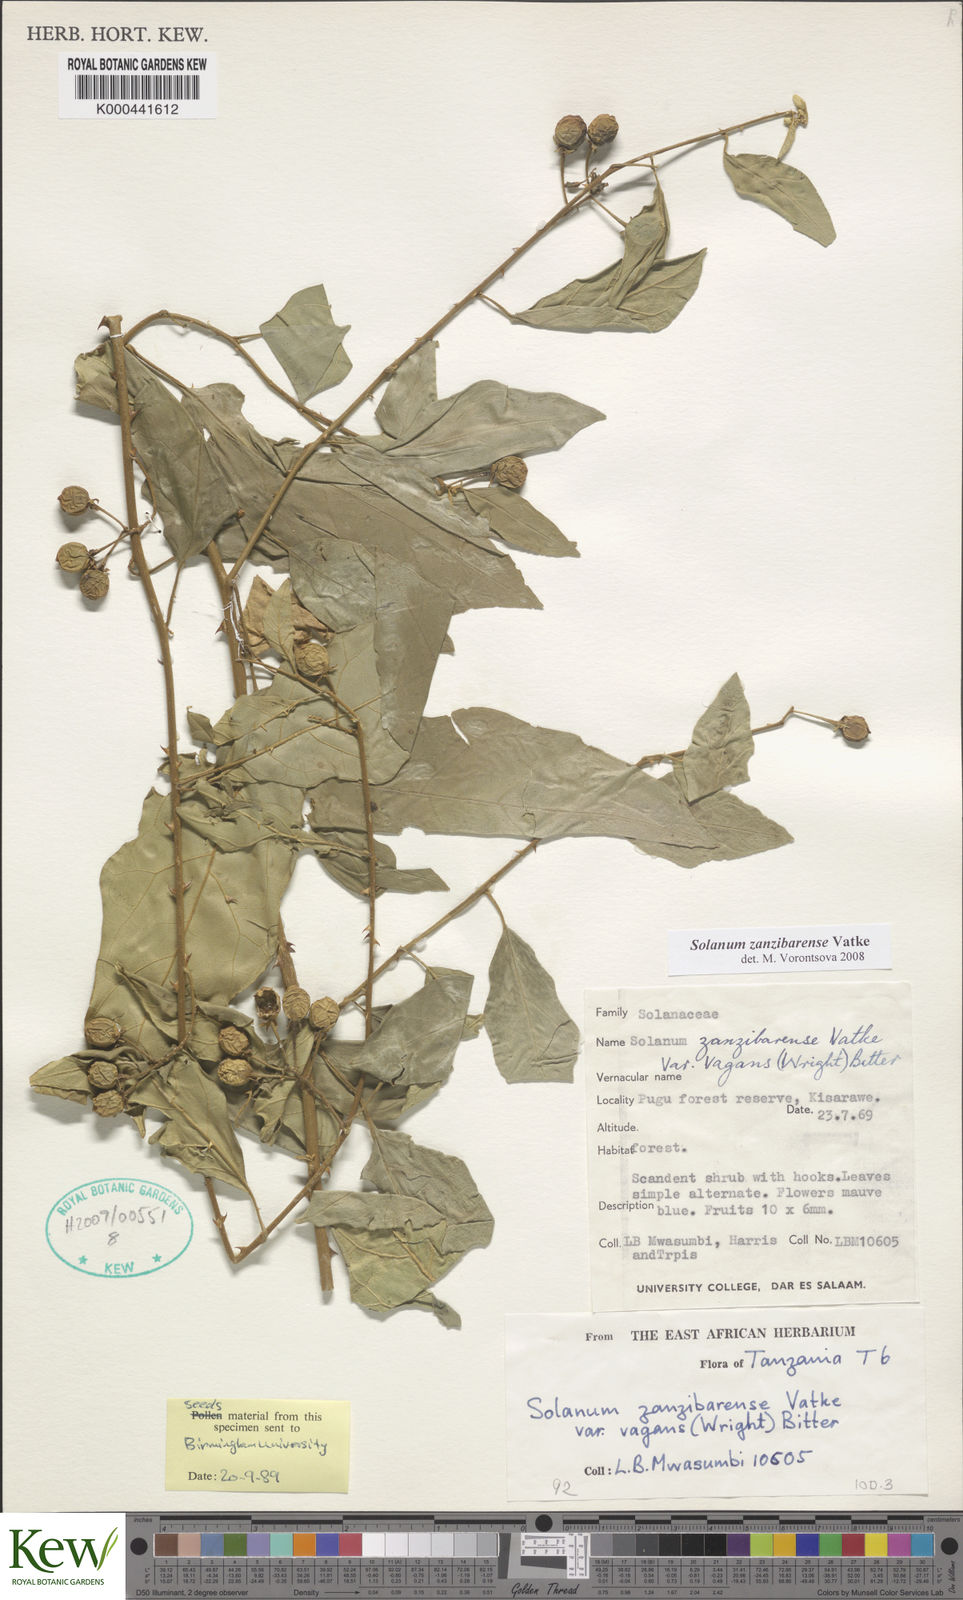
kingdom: Plantae
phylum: Tracheophyta
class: Magnoliopsida
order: Solanales
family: Solanaceae
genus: Solanum
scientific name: Solanum zanzibarense
